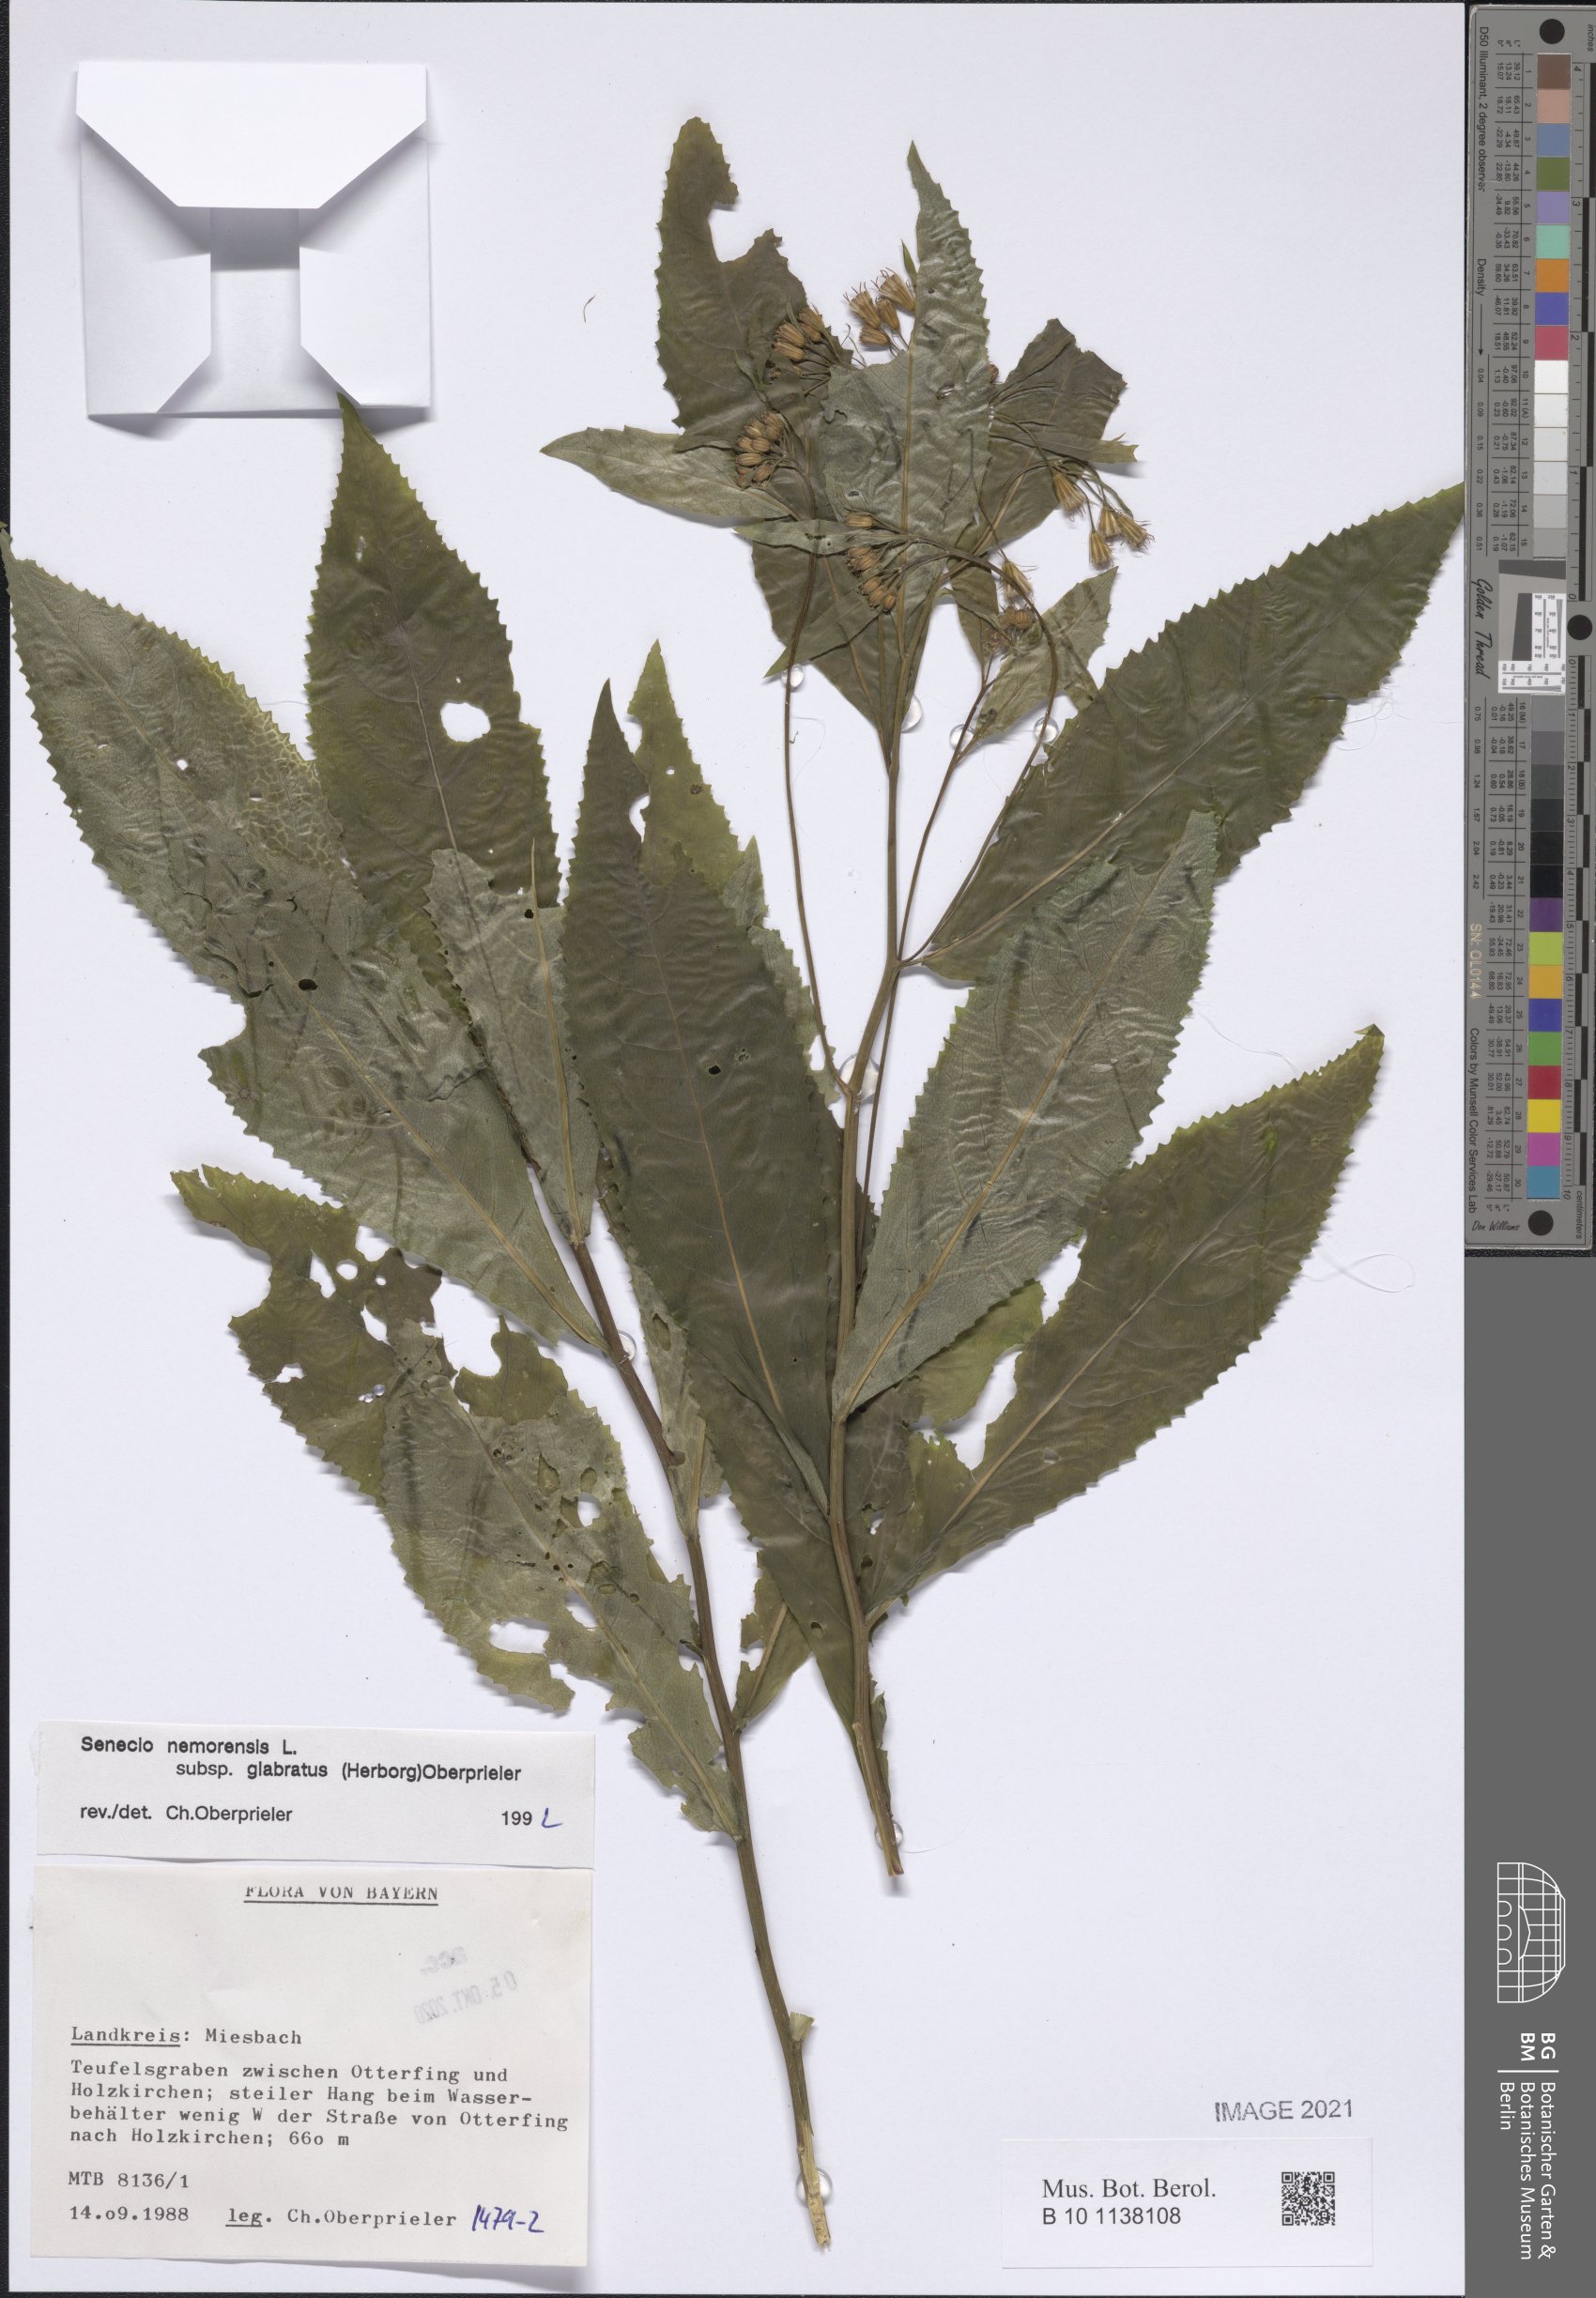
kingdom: Plantae
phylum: Tracheophyta
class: Magnoliopsida
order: Asterales
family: Asteraceae
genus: Senecio
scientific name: Senecio germanicus
